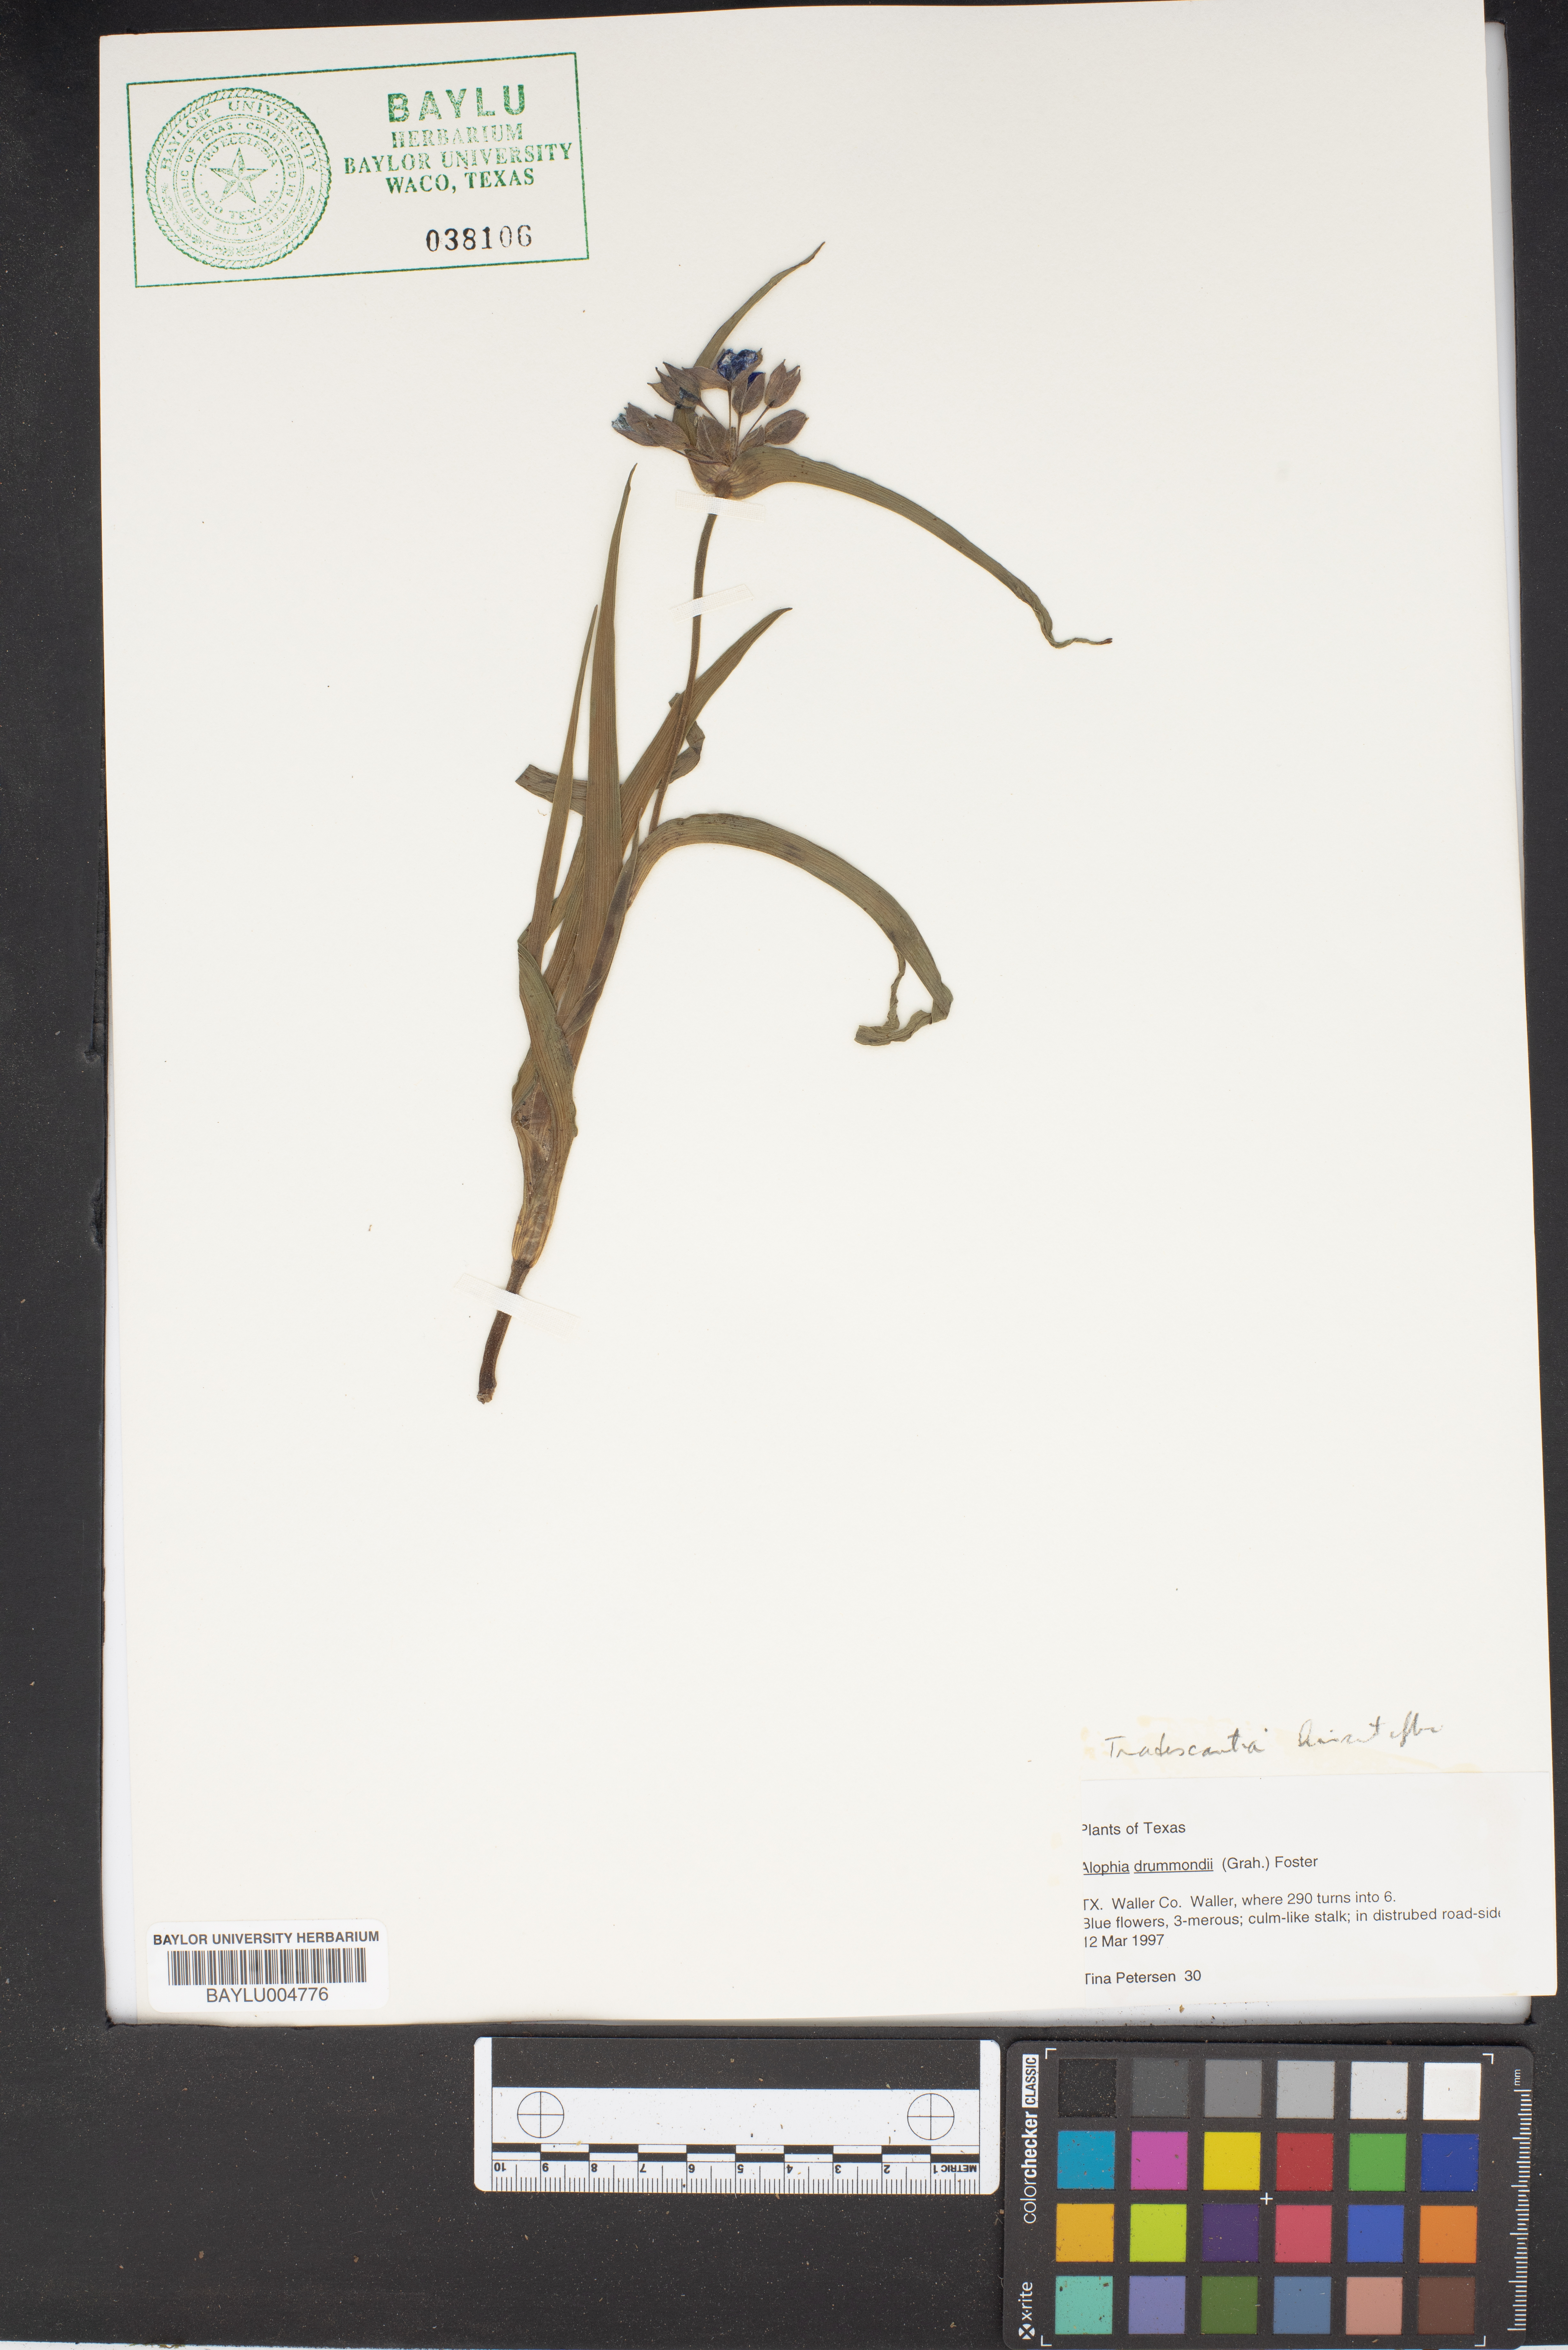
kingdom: Plantae
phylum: Tracheophyta
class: Liliopsida
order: Asparagales
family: Iridaceae
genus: Alophia
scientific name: Alophia drummondii
